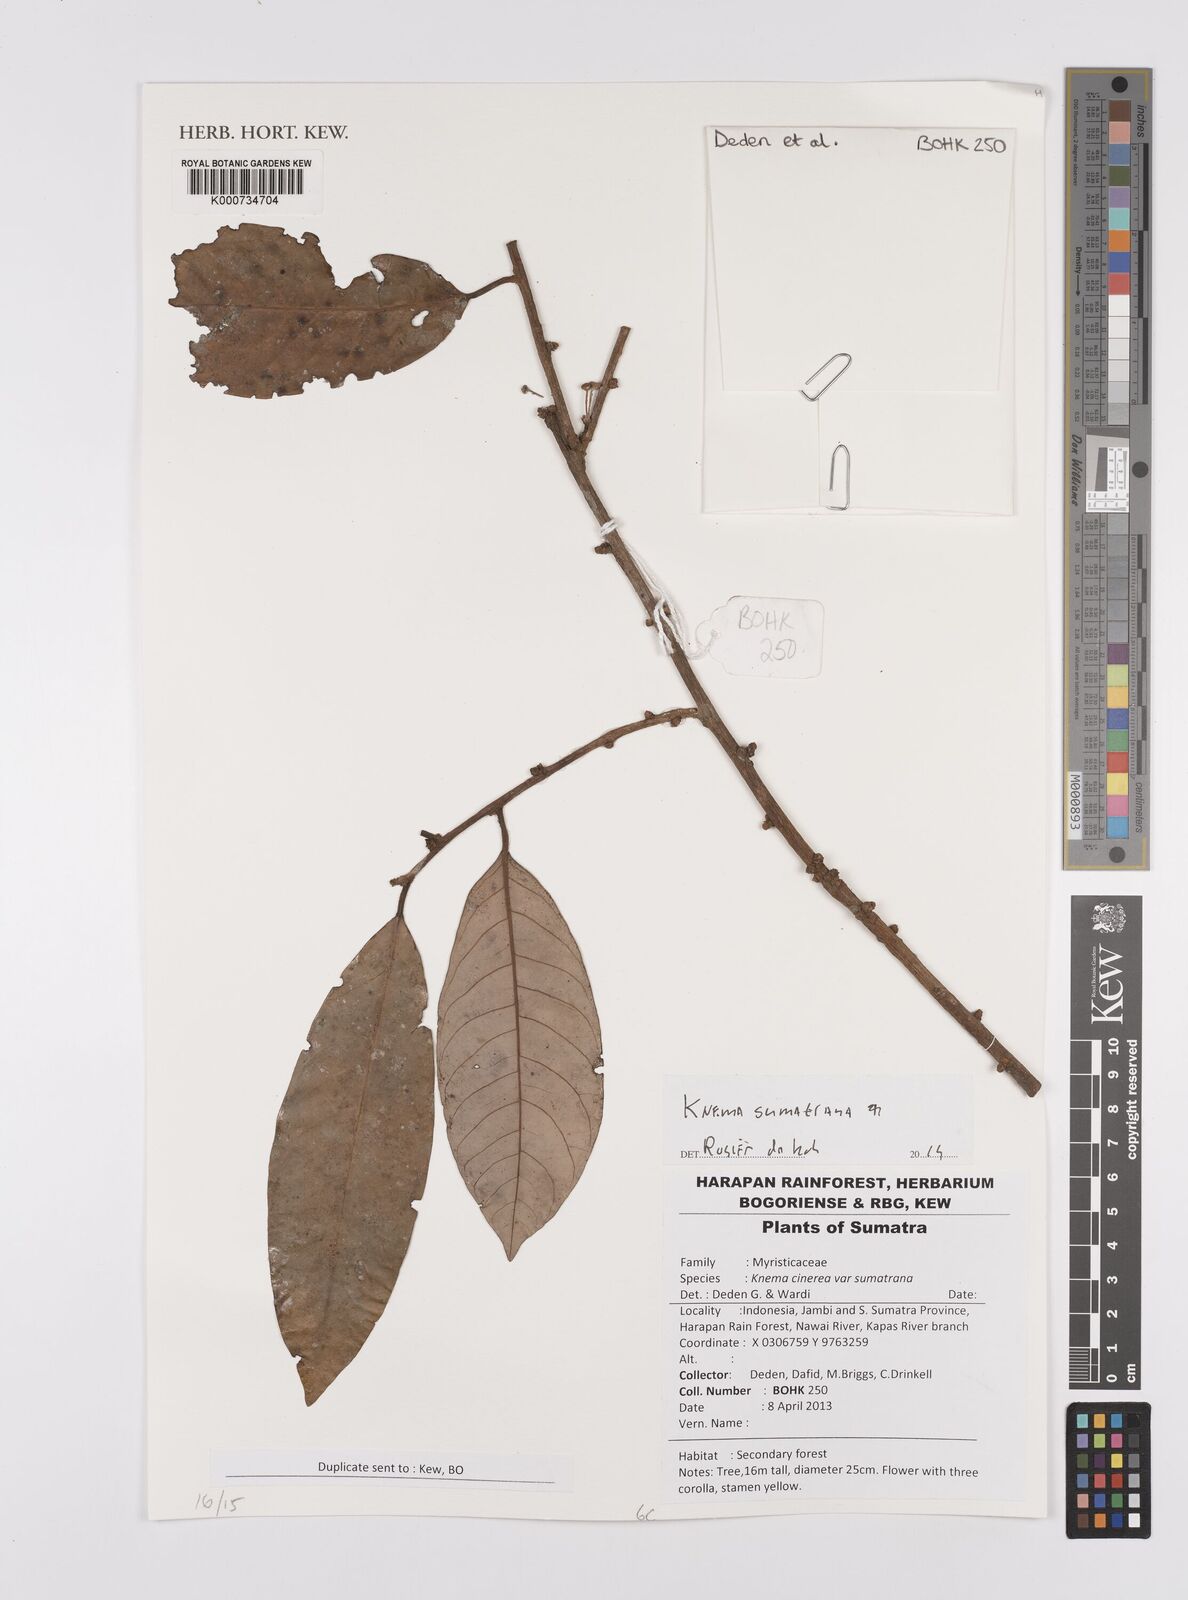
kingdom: Plantae
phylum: Tracheophyta
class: Magnoliopsida
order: Magnoliales
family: Myristicaceae
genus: Knema
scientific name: Knema sumatrana
